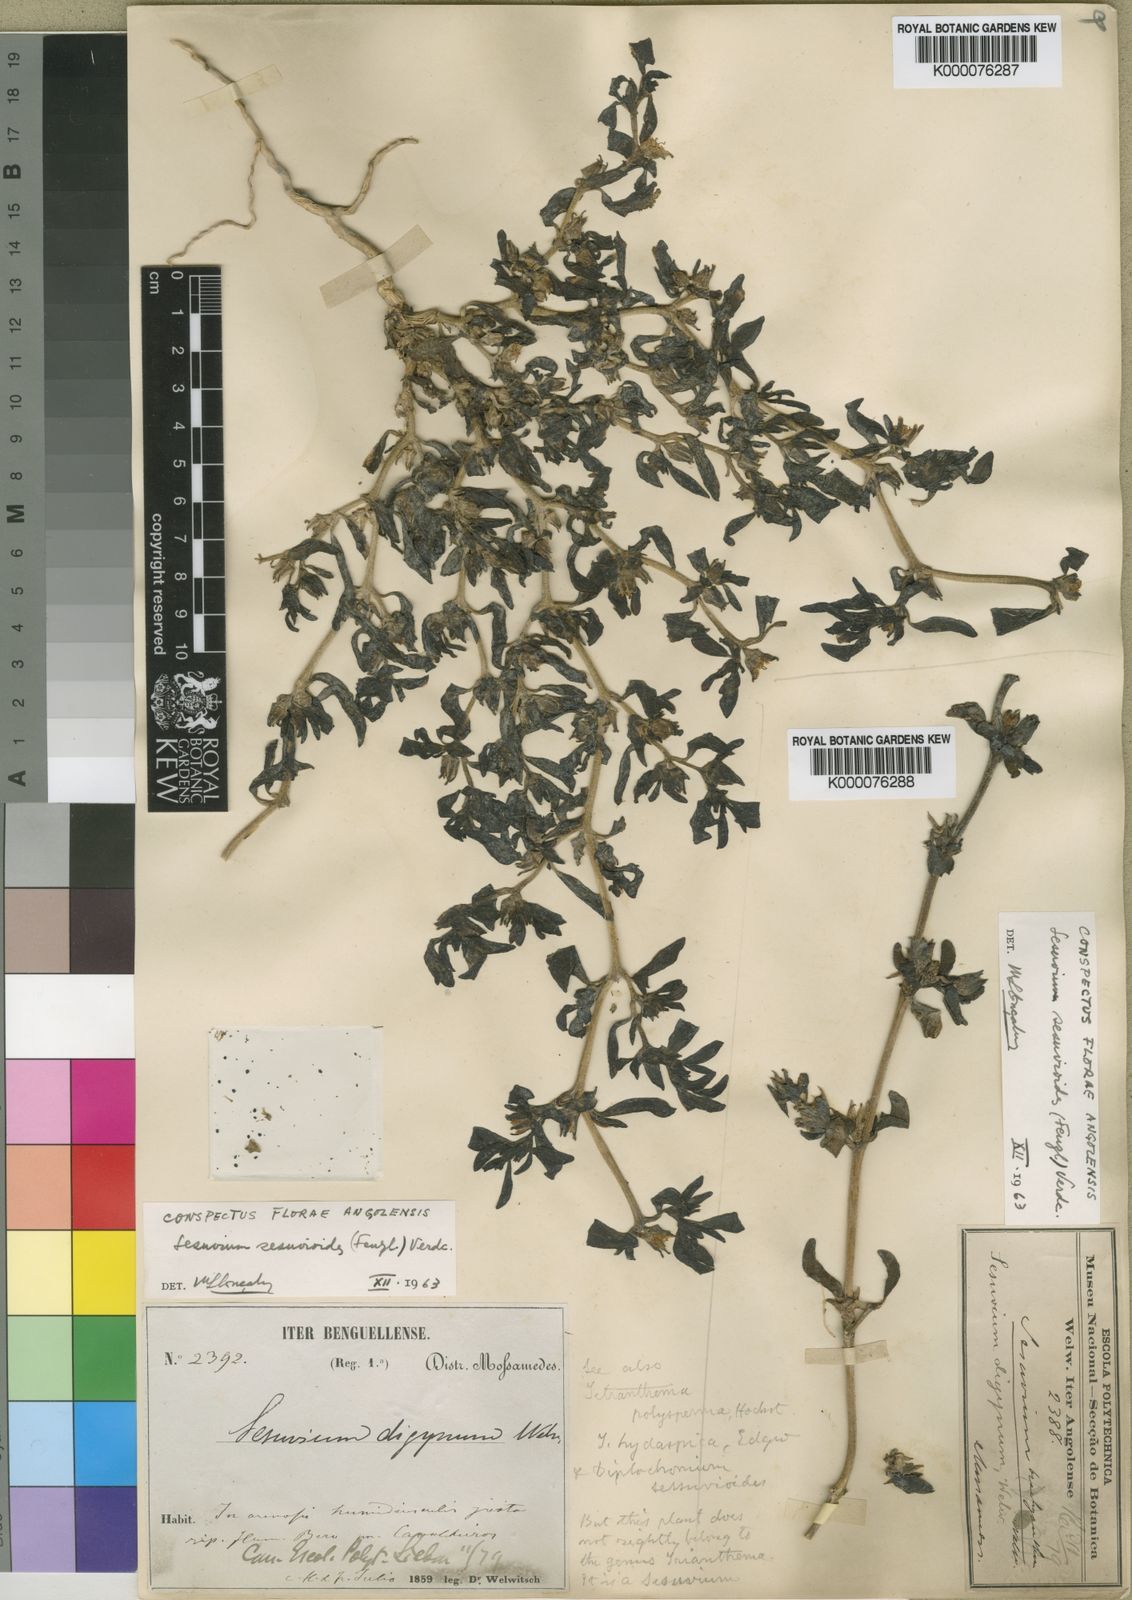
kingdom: Plantae
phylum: Tracheophyta
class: Magnoliopsida
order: Caryophyllales
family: Aizoaceae
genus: Sesuvium
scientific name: Sesuvium sesuvioides
